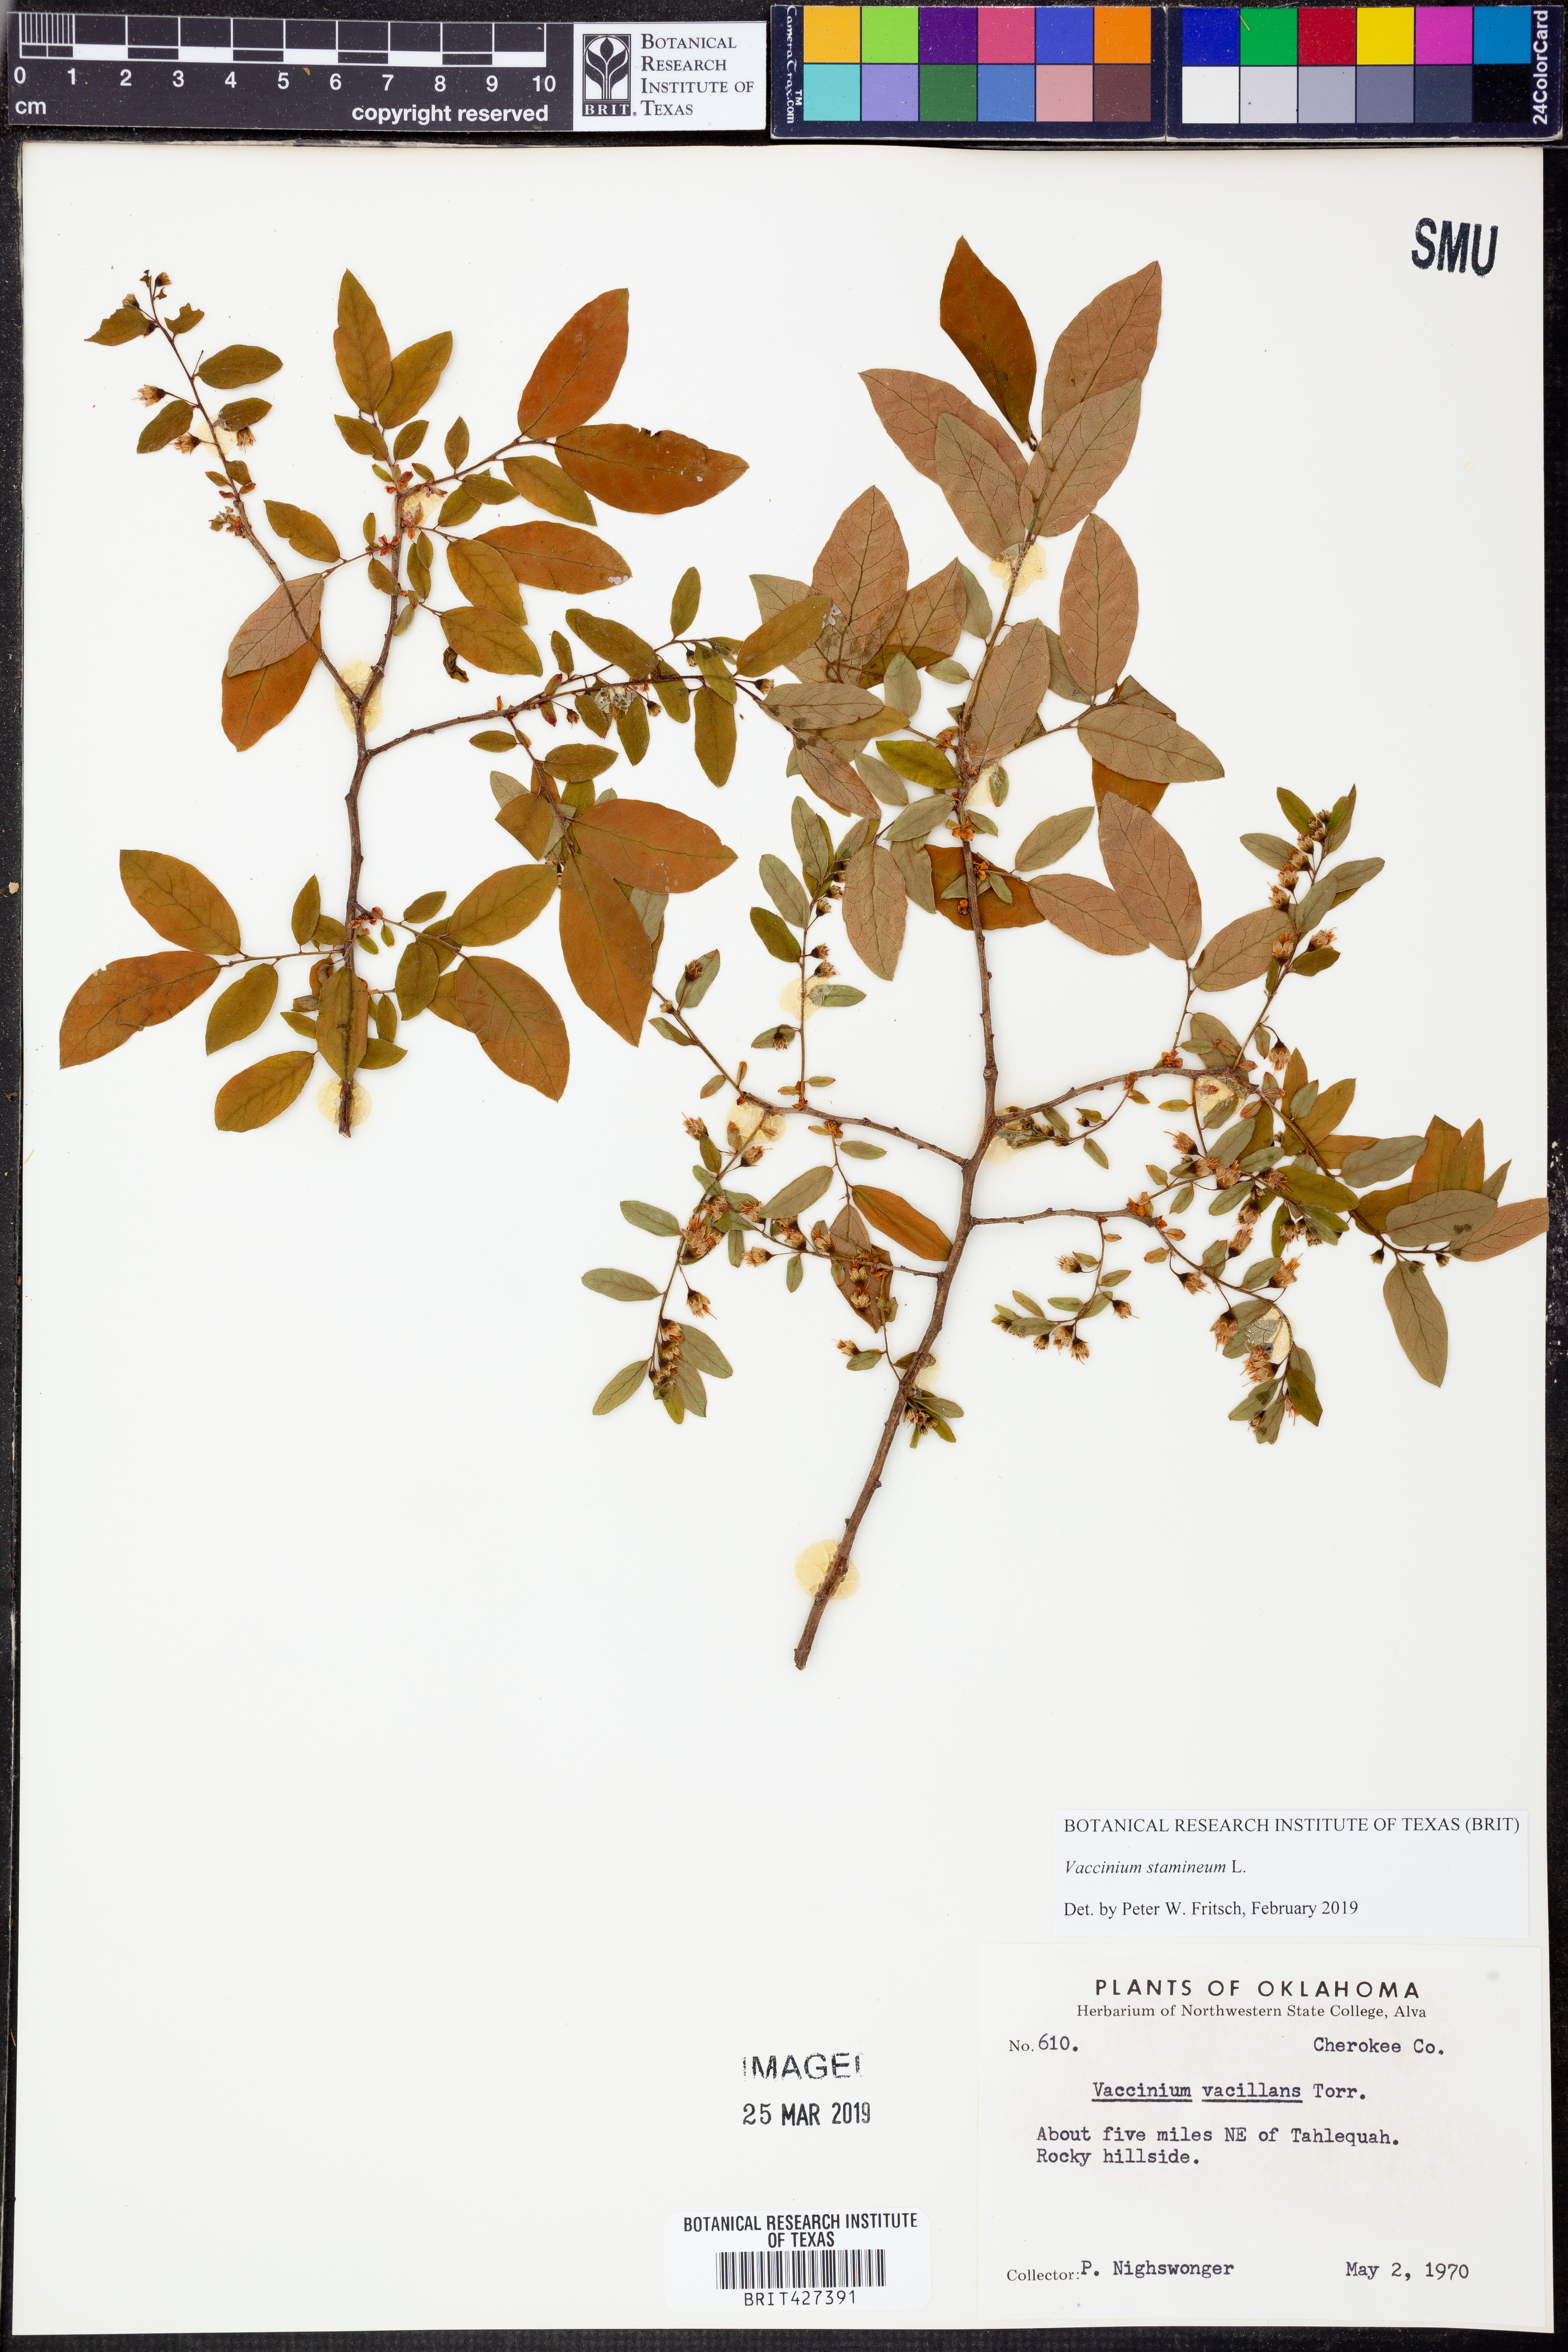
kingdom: Plantae
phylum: Tracheophyta
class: Magnoliopsida
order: Ericales
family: Ericaceae
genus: Vaccinium
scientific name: Vaccinium stamineum
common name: Deerberry
